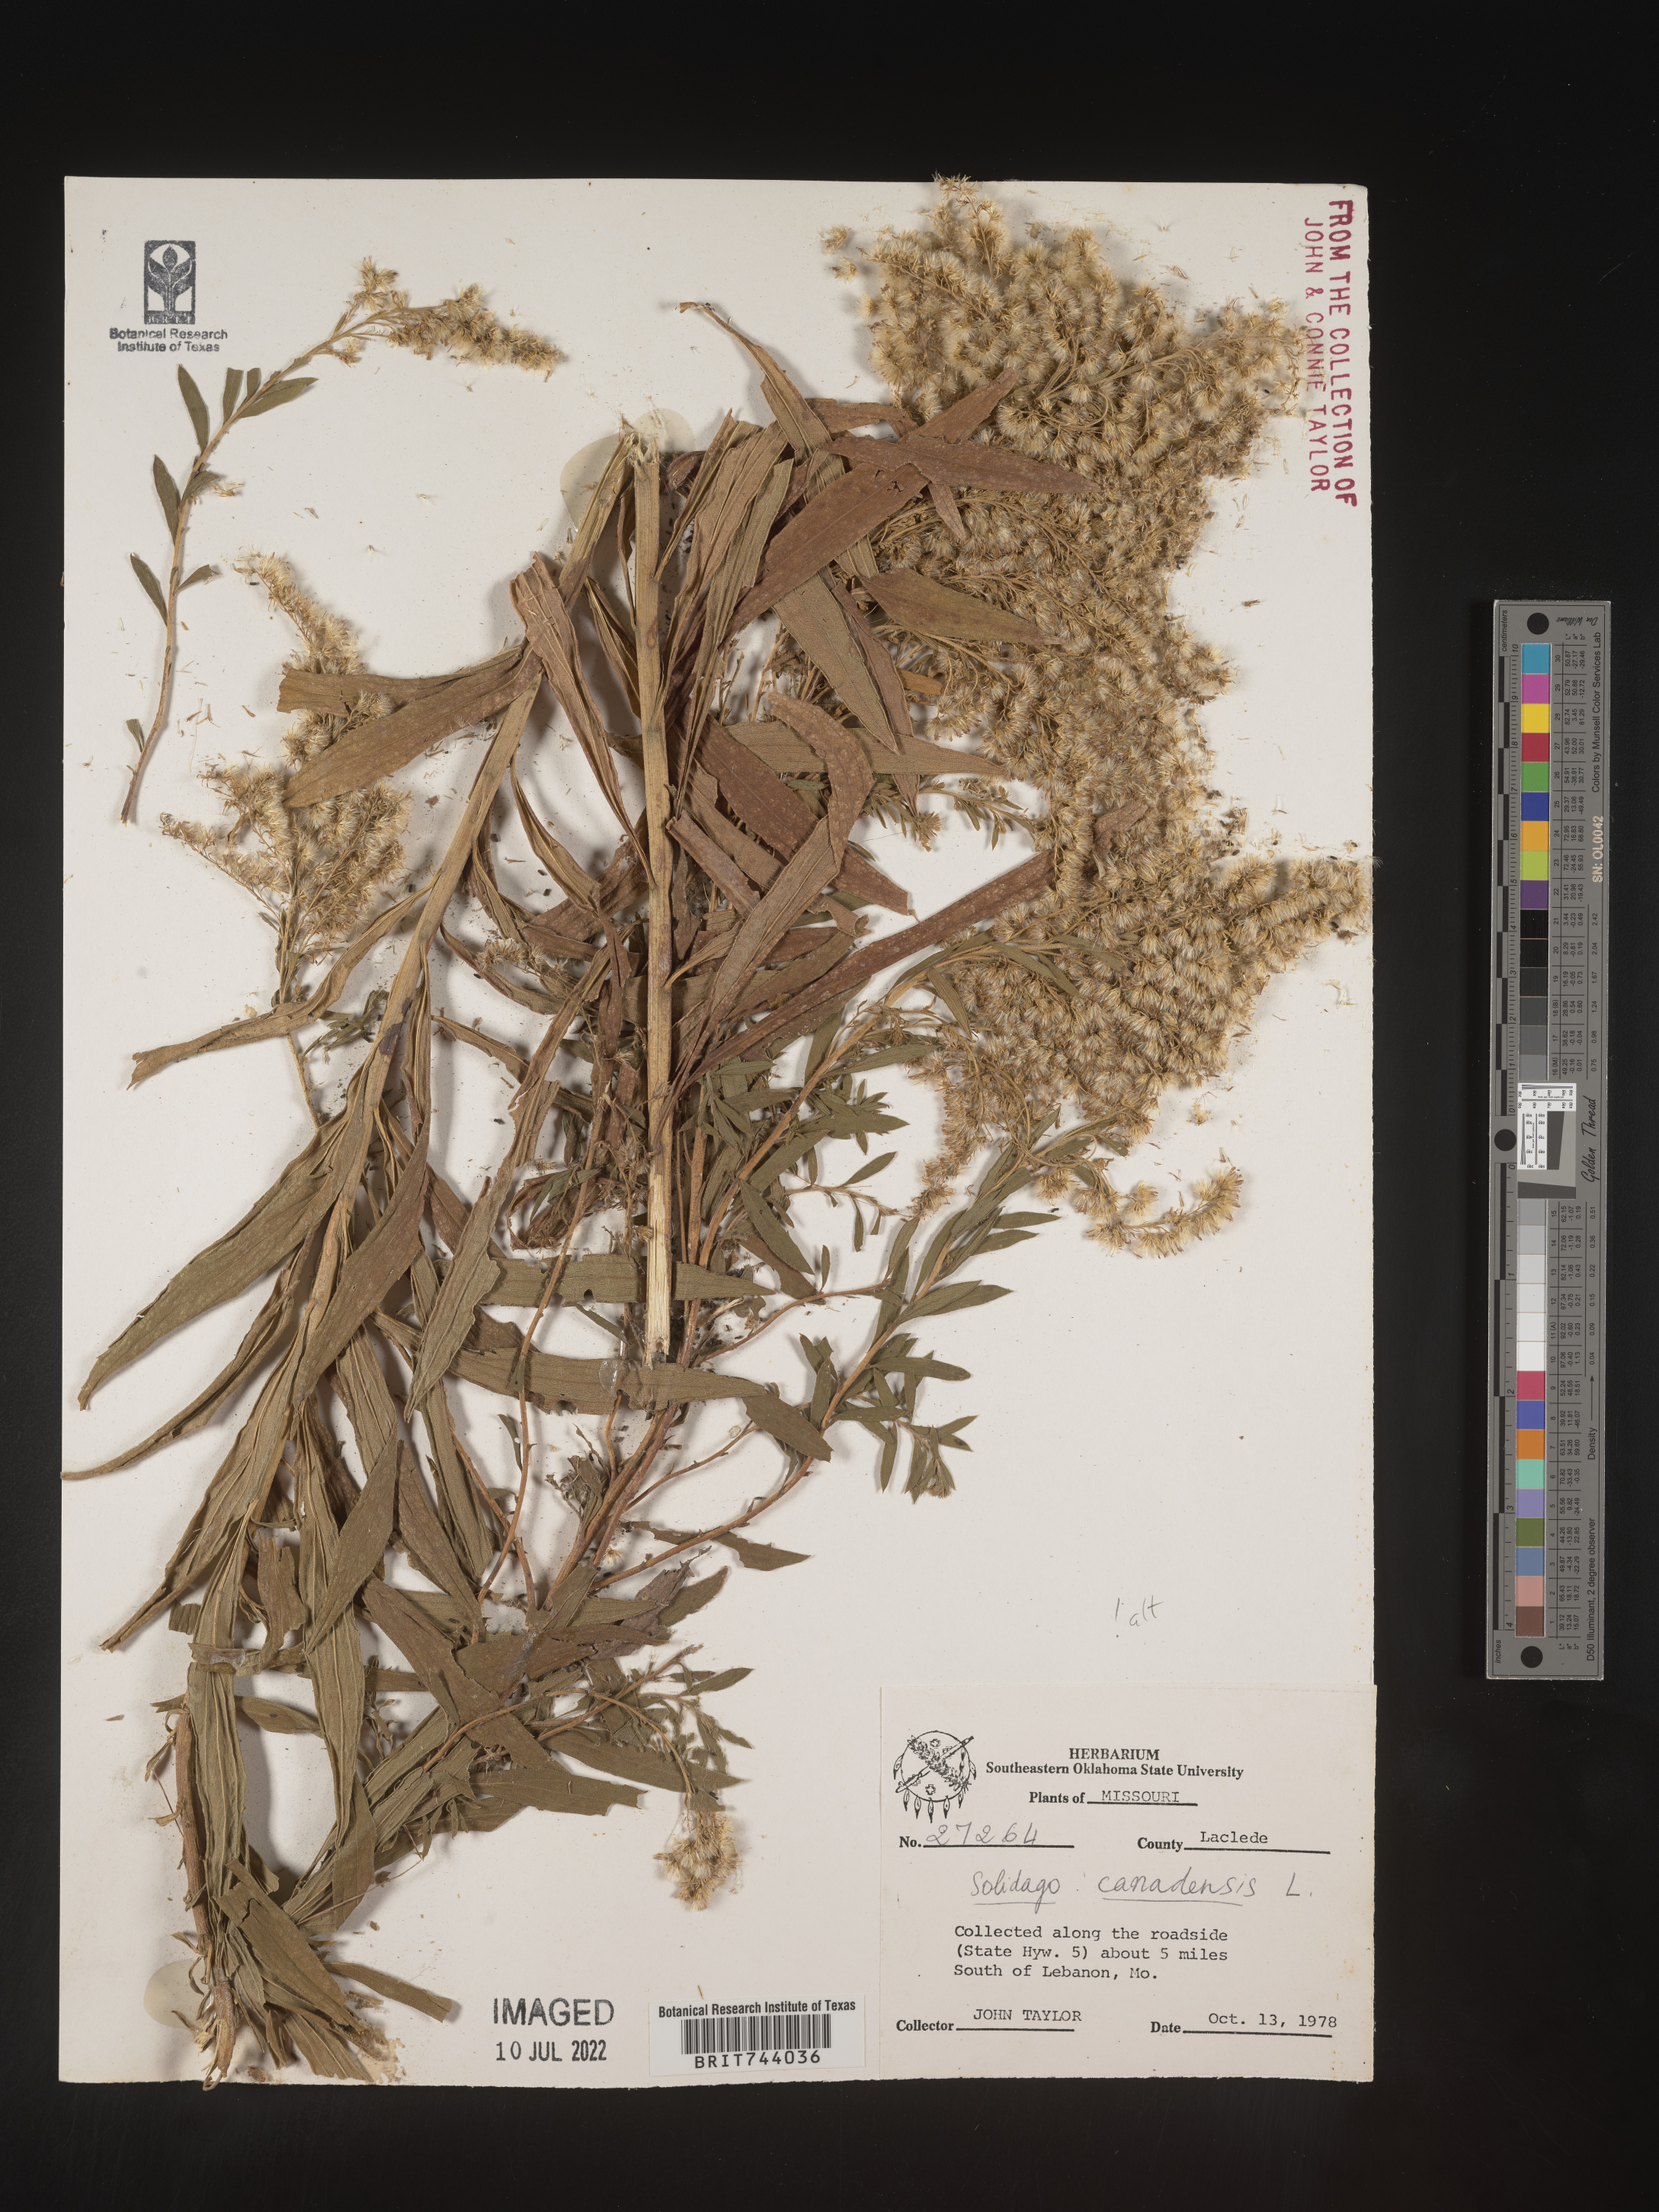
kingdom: Plantae
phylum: Tracheophyta
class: Magnoliopsida
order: Asterales
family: Asteraceae
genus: Solidago
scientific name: Solidago altissima
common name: Late goldenrod
